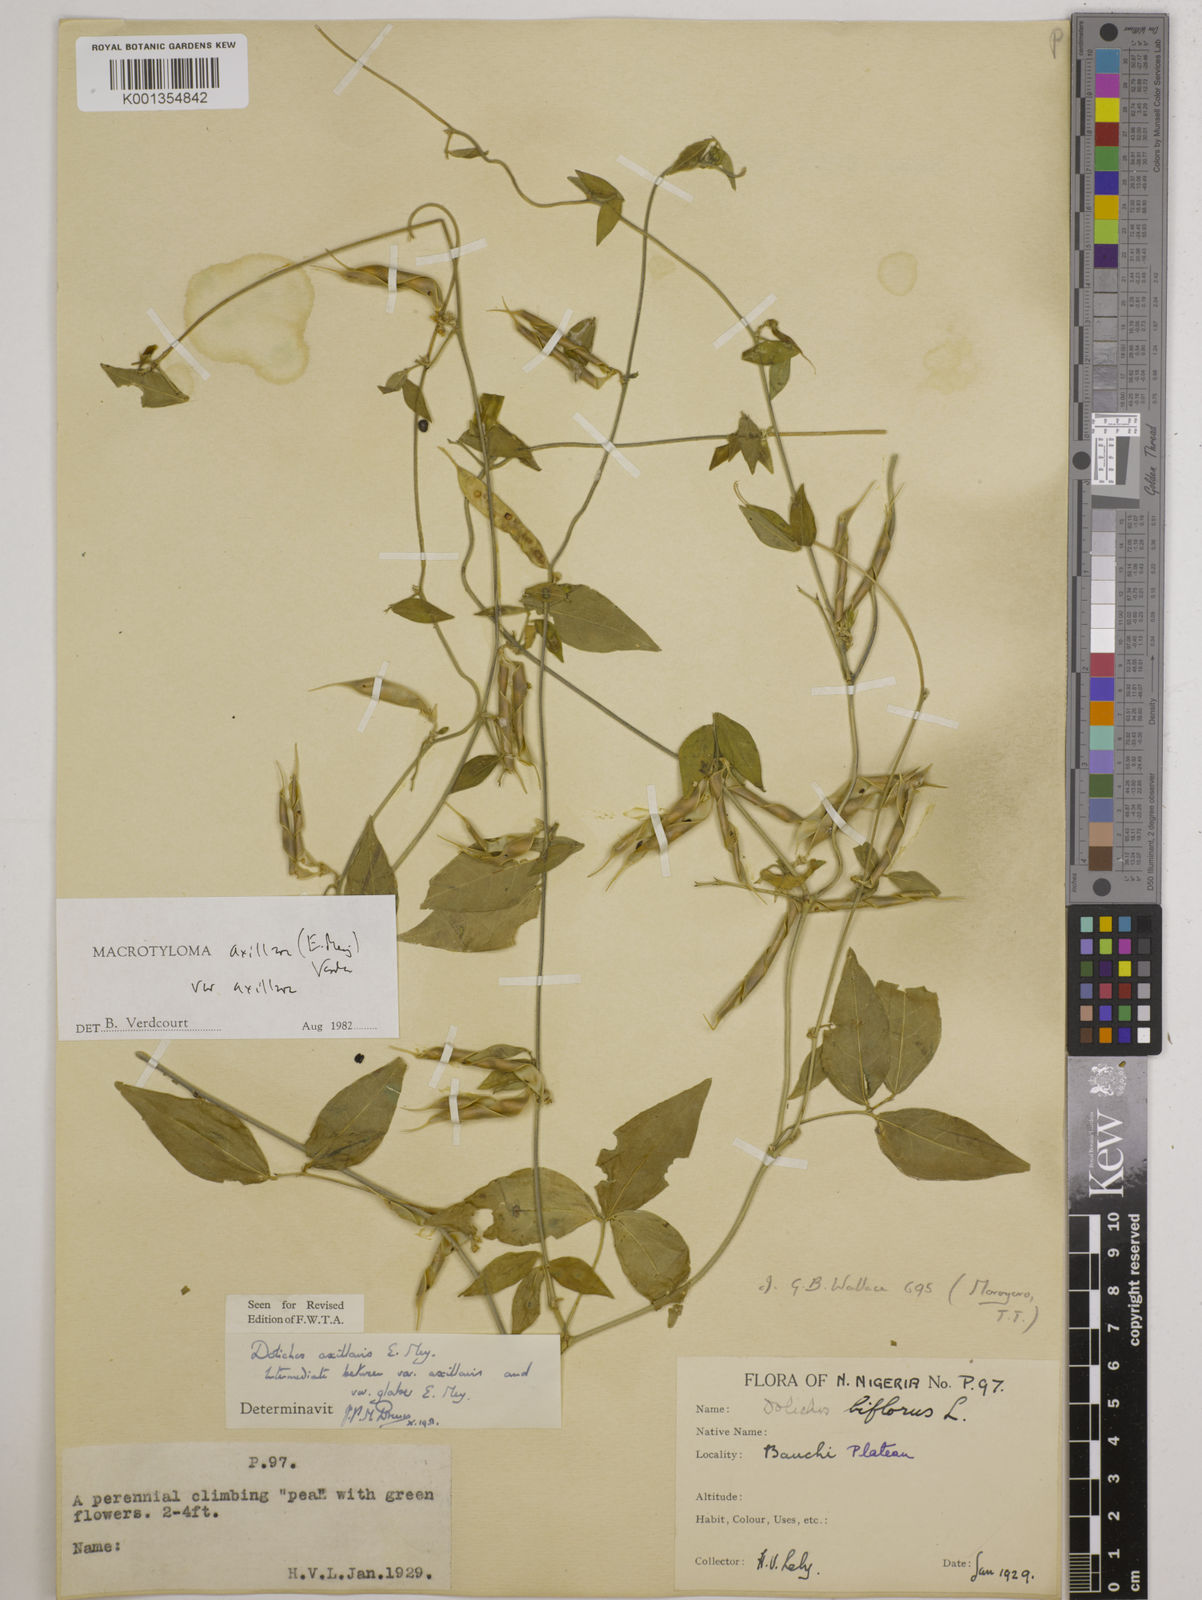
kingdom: Plantae
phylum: Tracheophyta
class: Magnoliopsida
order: Fabales
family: Fabaceae
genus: Macrotyloma
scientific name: Macrotyloma axillare
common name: Perennial horsegram
